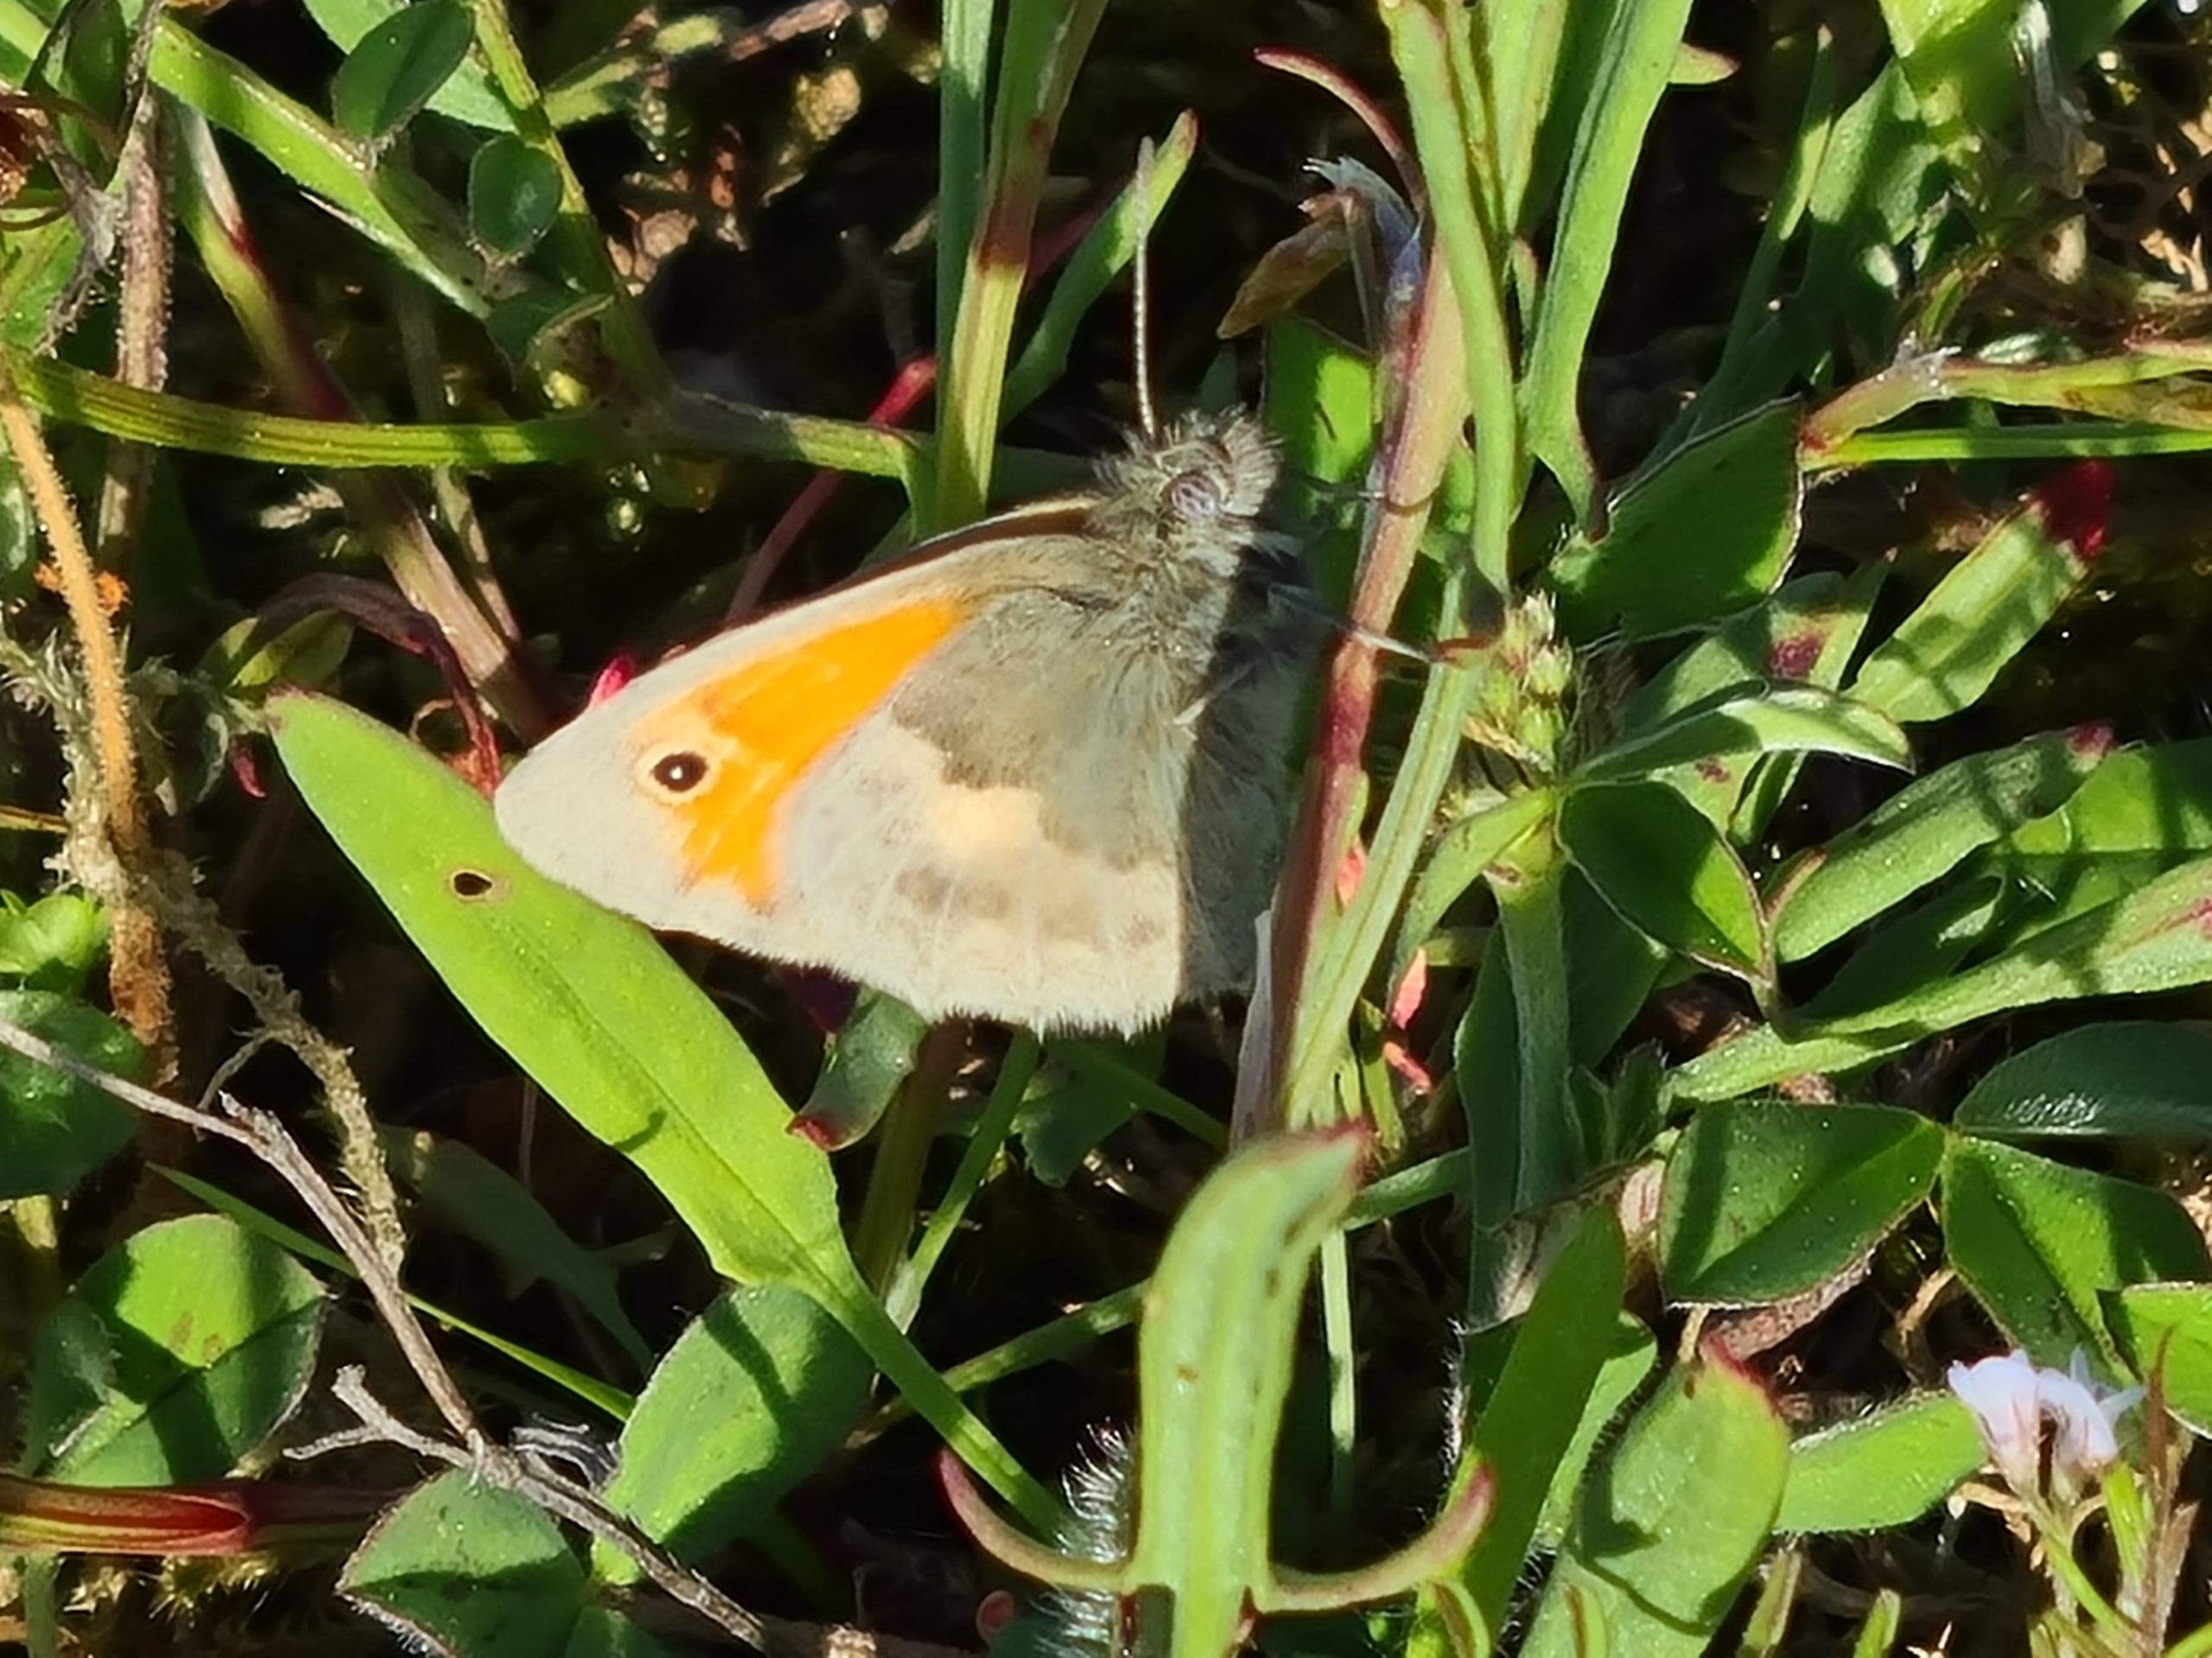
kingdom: Animalia
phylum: Arthropoda
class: Insecta
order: Lepidoptera
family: Nymphalidae
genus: Coenonympha
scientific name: Coenonympha pamphilus
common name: Okkergul randøje
